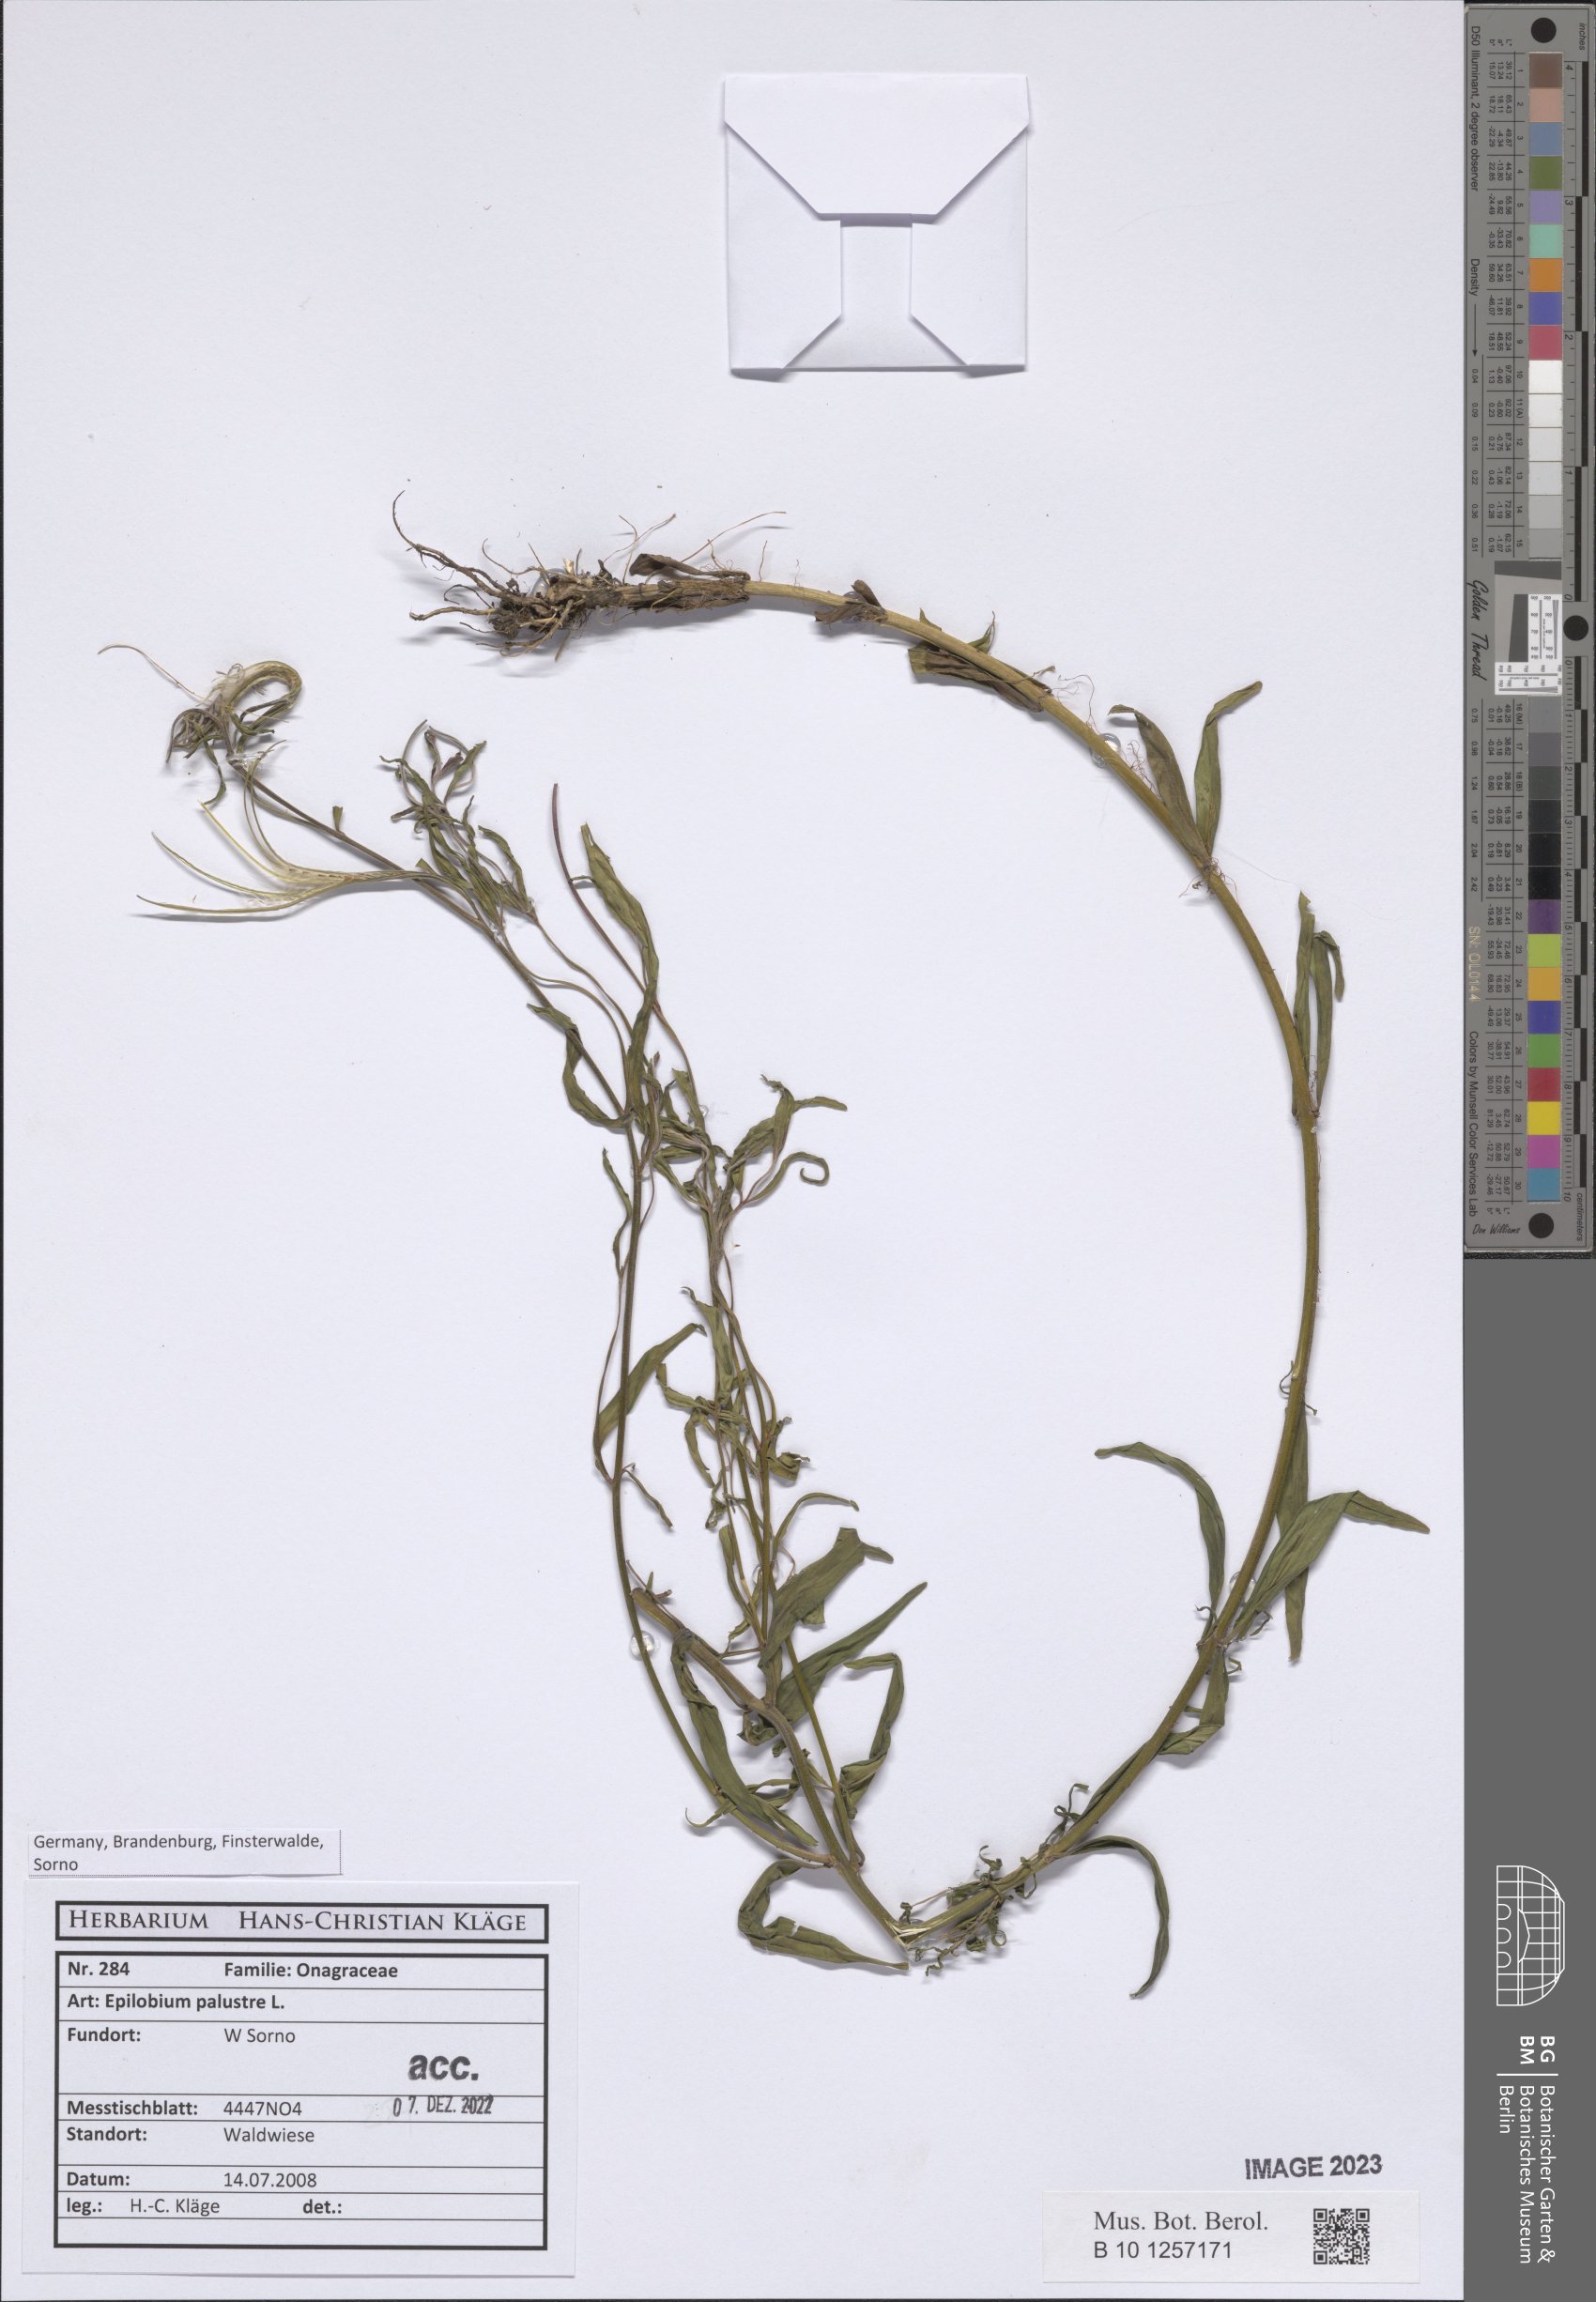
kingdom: Plantae
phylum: Tracheophyta
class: Magnoliopsida
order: Myrtales
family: Onagraceae
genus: Epilobium
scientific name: Epilobium palustre
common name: Marsh willowherb
